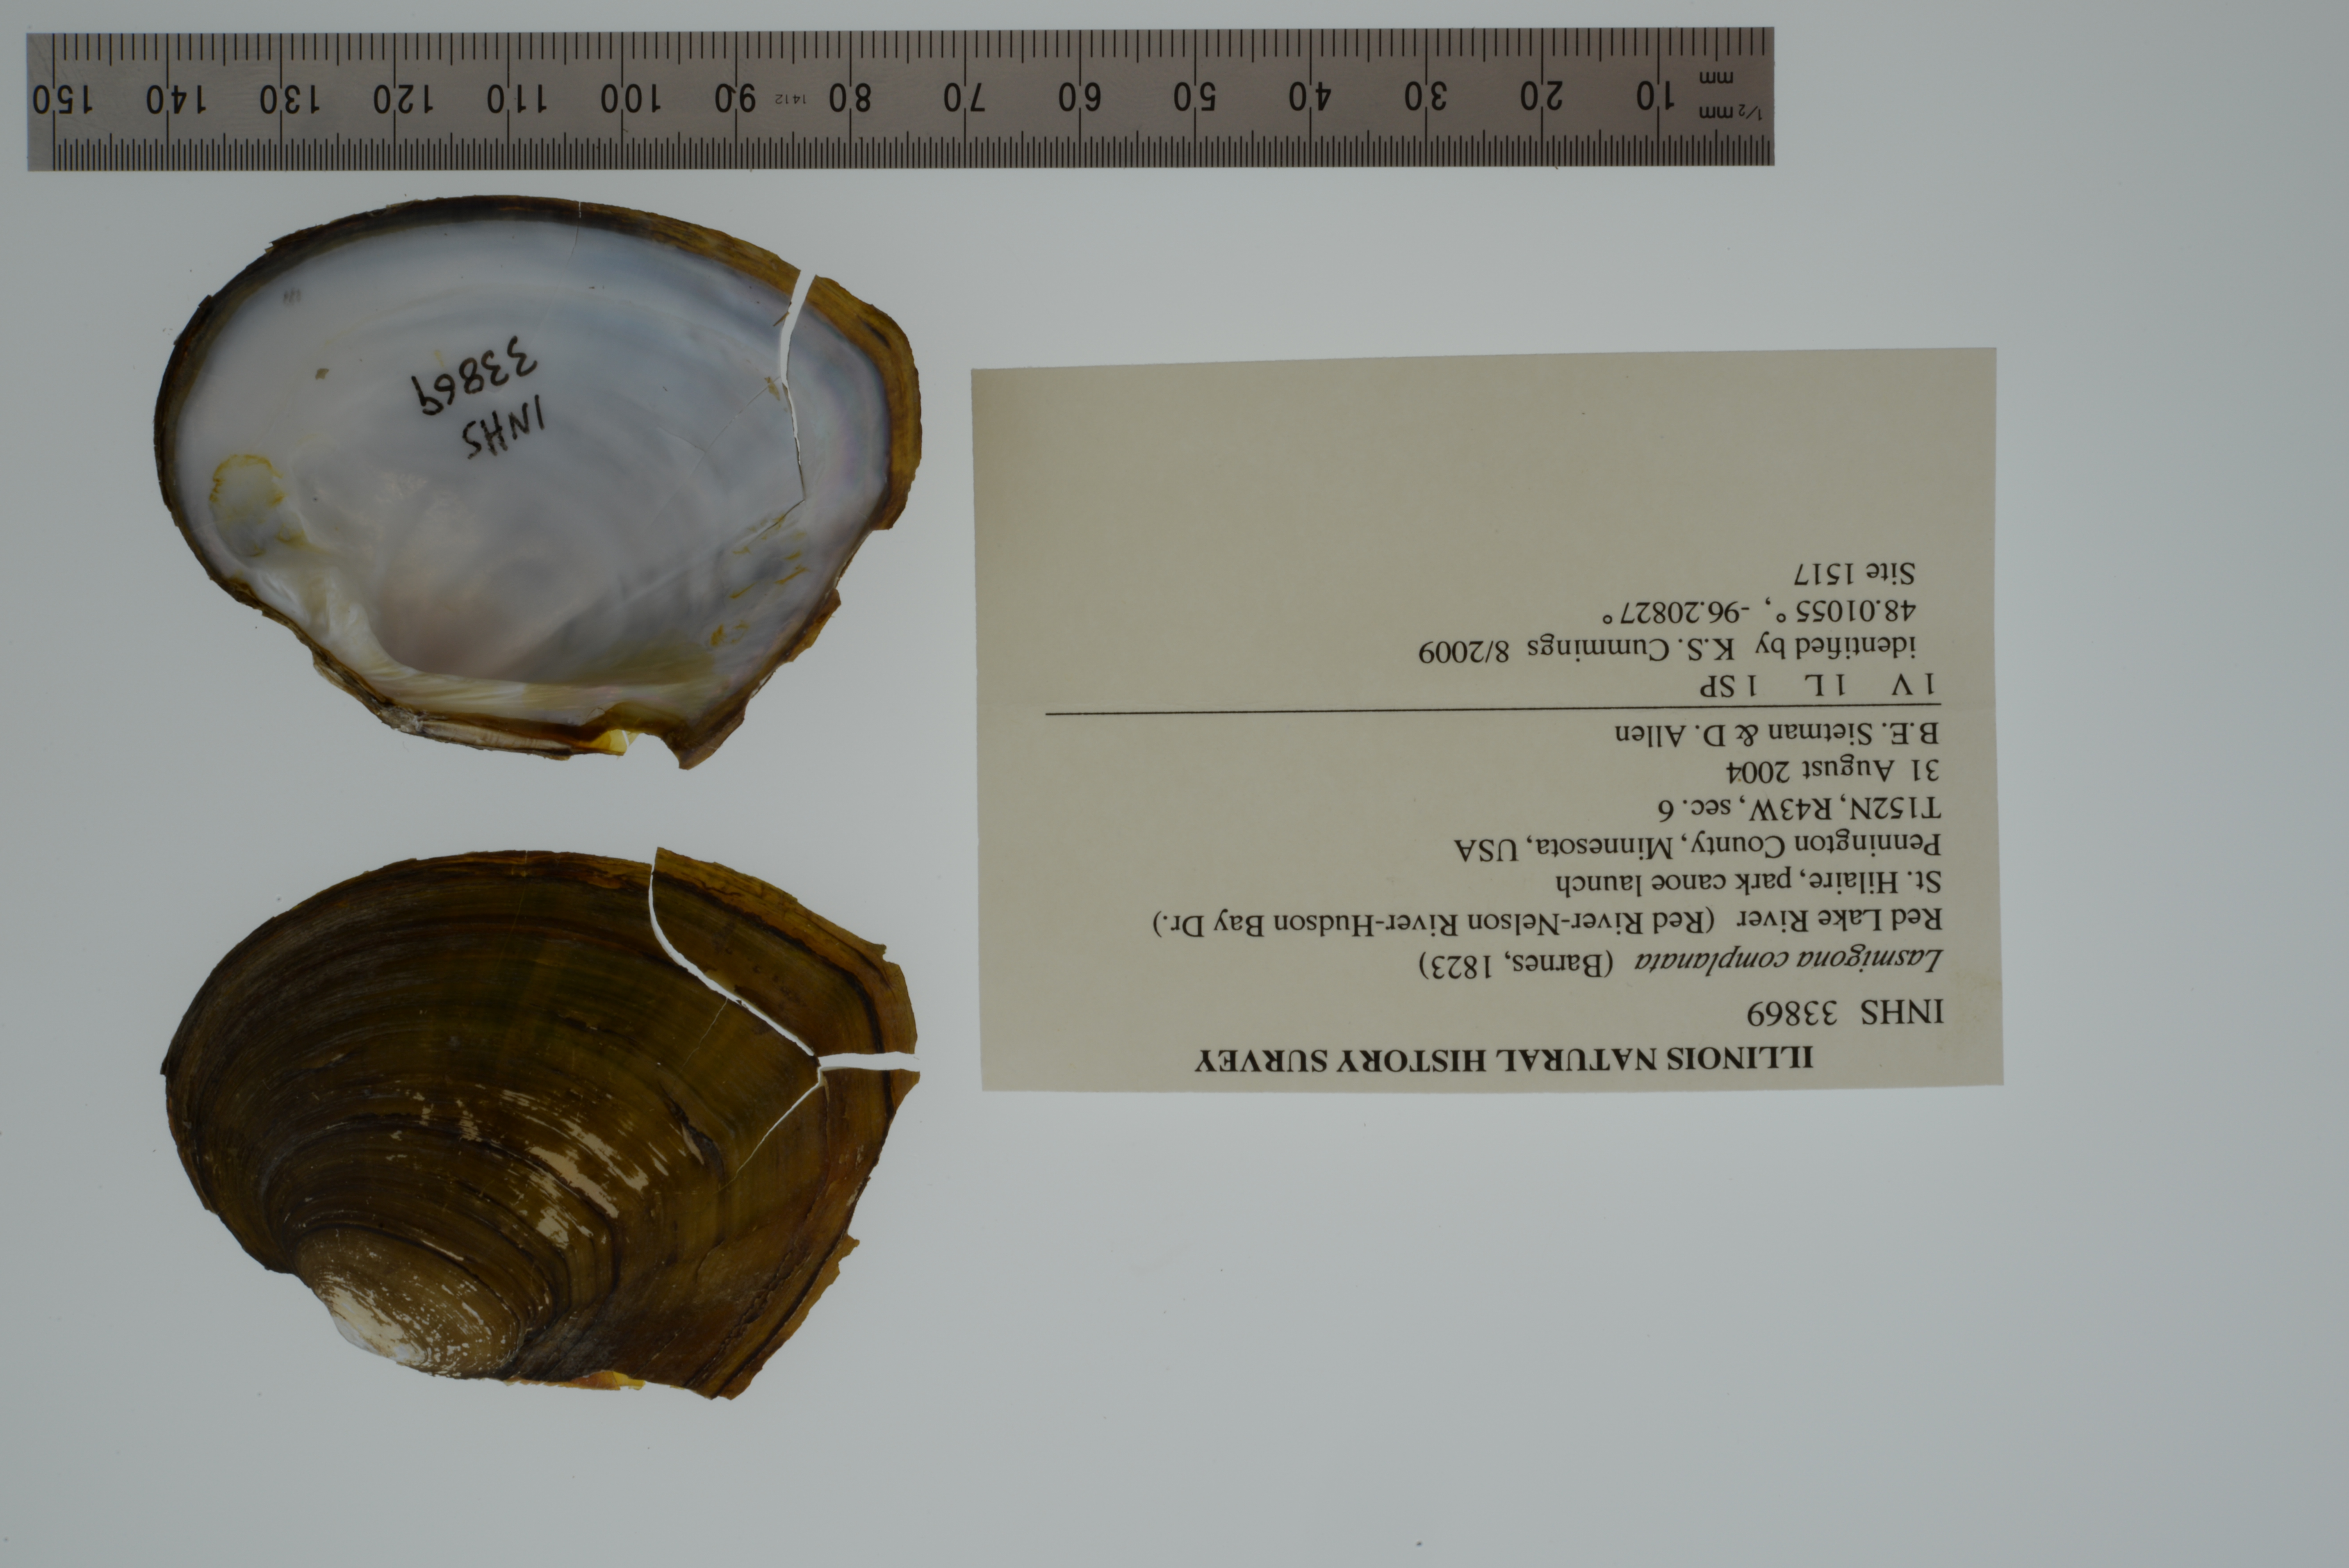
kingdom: Animalia
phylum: Mollusca
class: Bivalvia
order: Unionida
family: Unionidae
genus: Lasmigona
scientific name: Lasmigona complanata
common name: White heelsplitter
